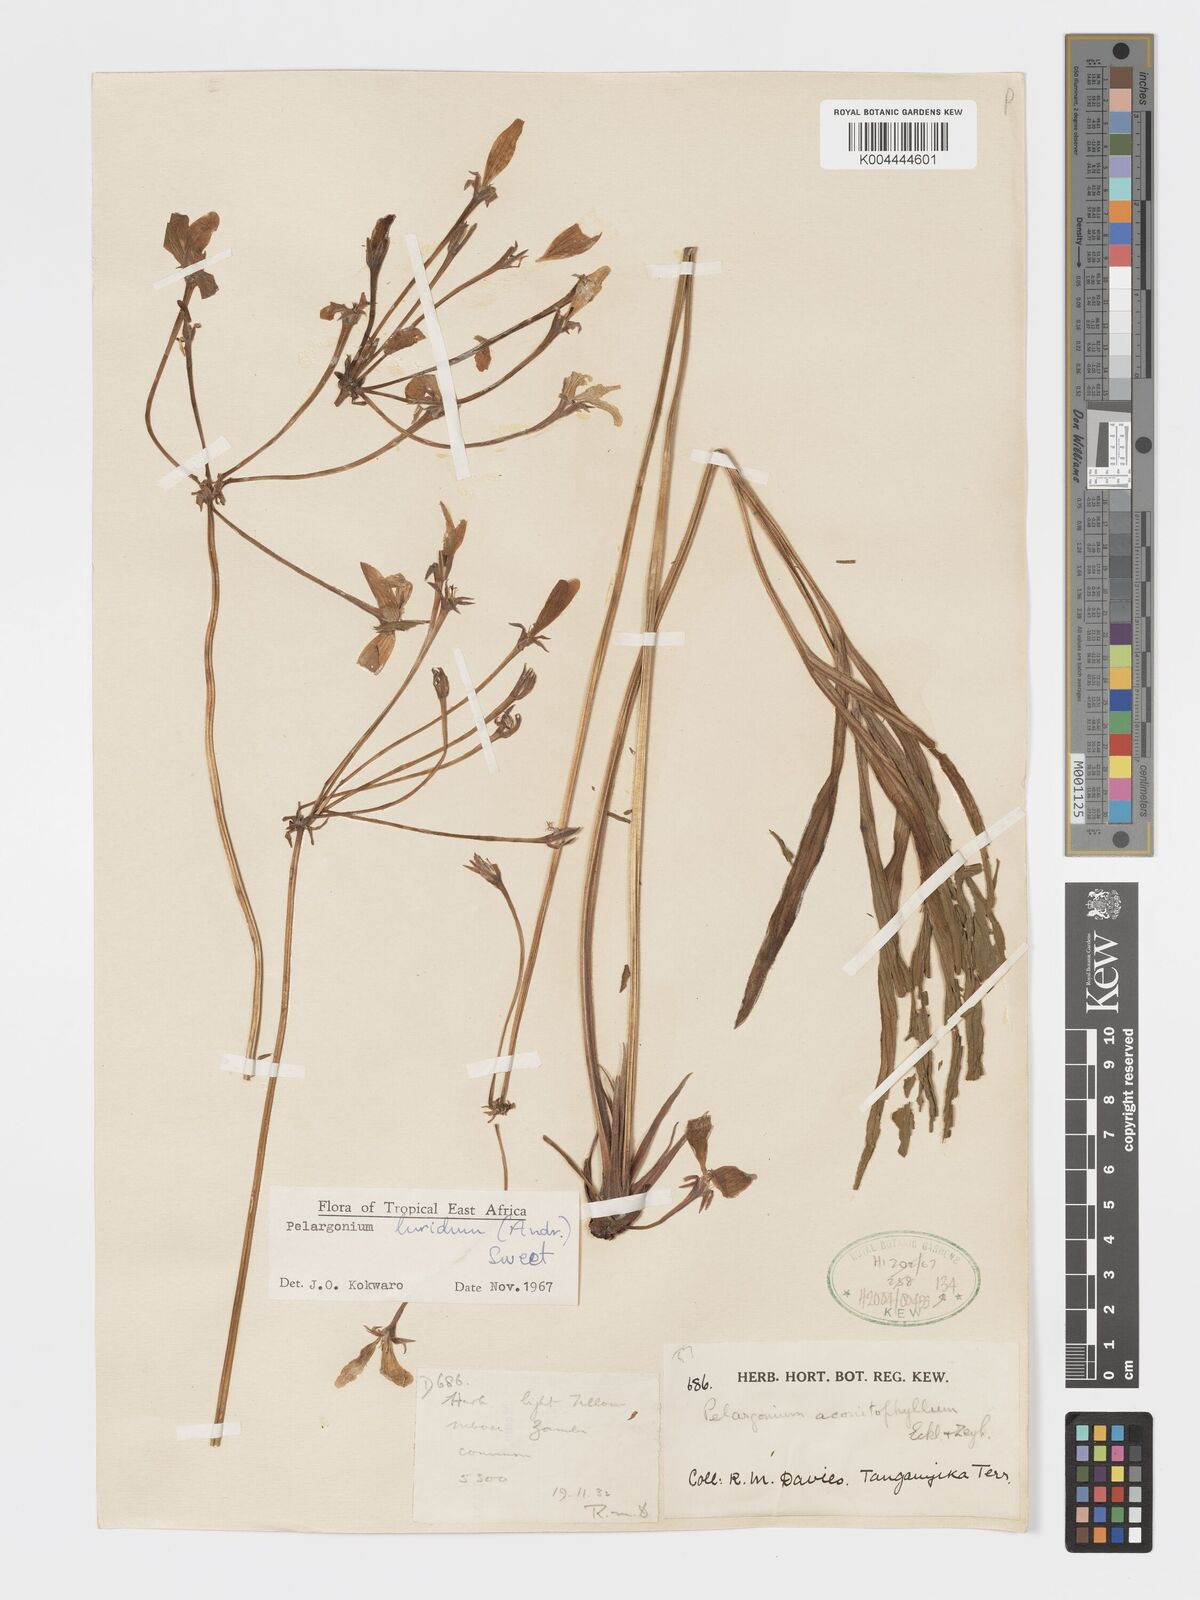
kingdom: Plantae
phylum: Tracheophyta
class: Magnoliopsida
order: Geraniales
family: Geraniaceae
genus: Pelargonium
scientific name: Pelargonium luridum
